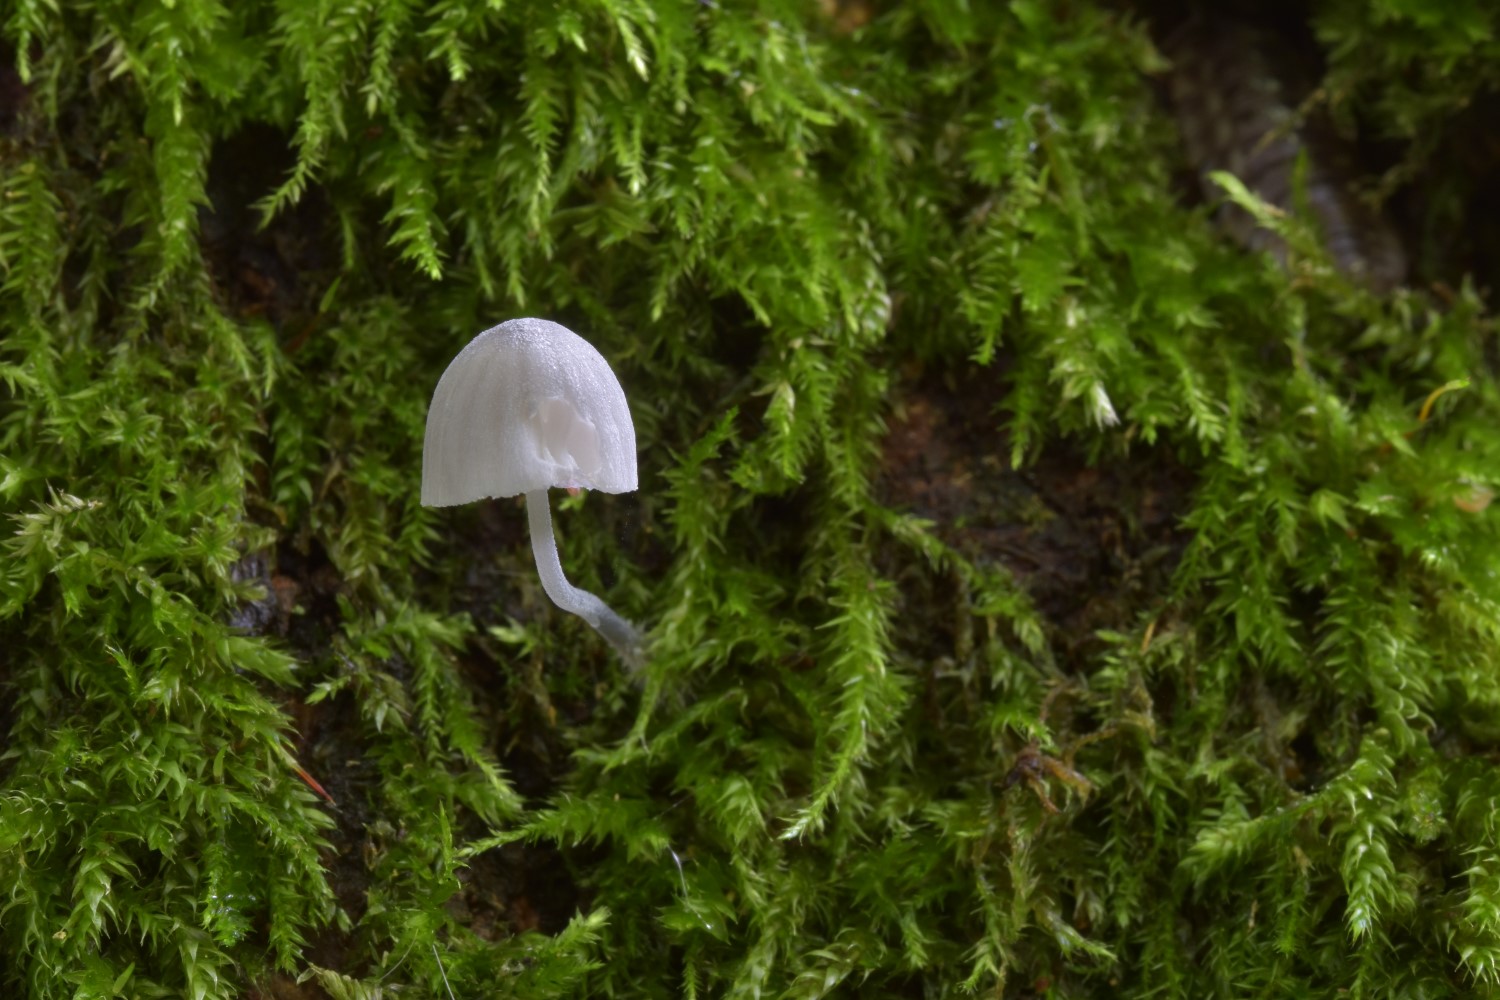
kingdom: Fungi
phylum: Basidiomycota
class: Agaricomycetes
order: Agaricales
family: Mycenaceae
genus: Mycena
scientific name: Mycena pseudocorticola
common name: gråblå bark-huesvamp
